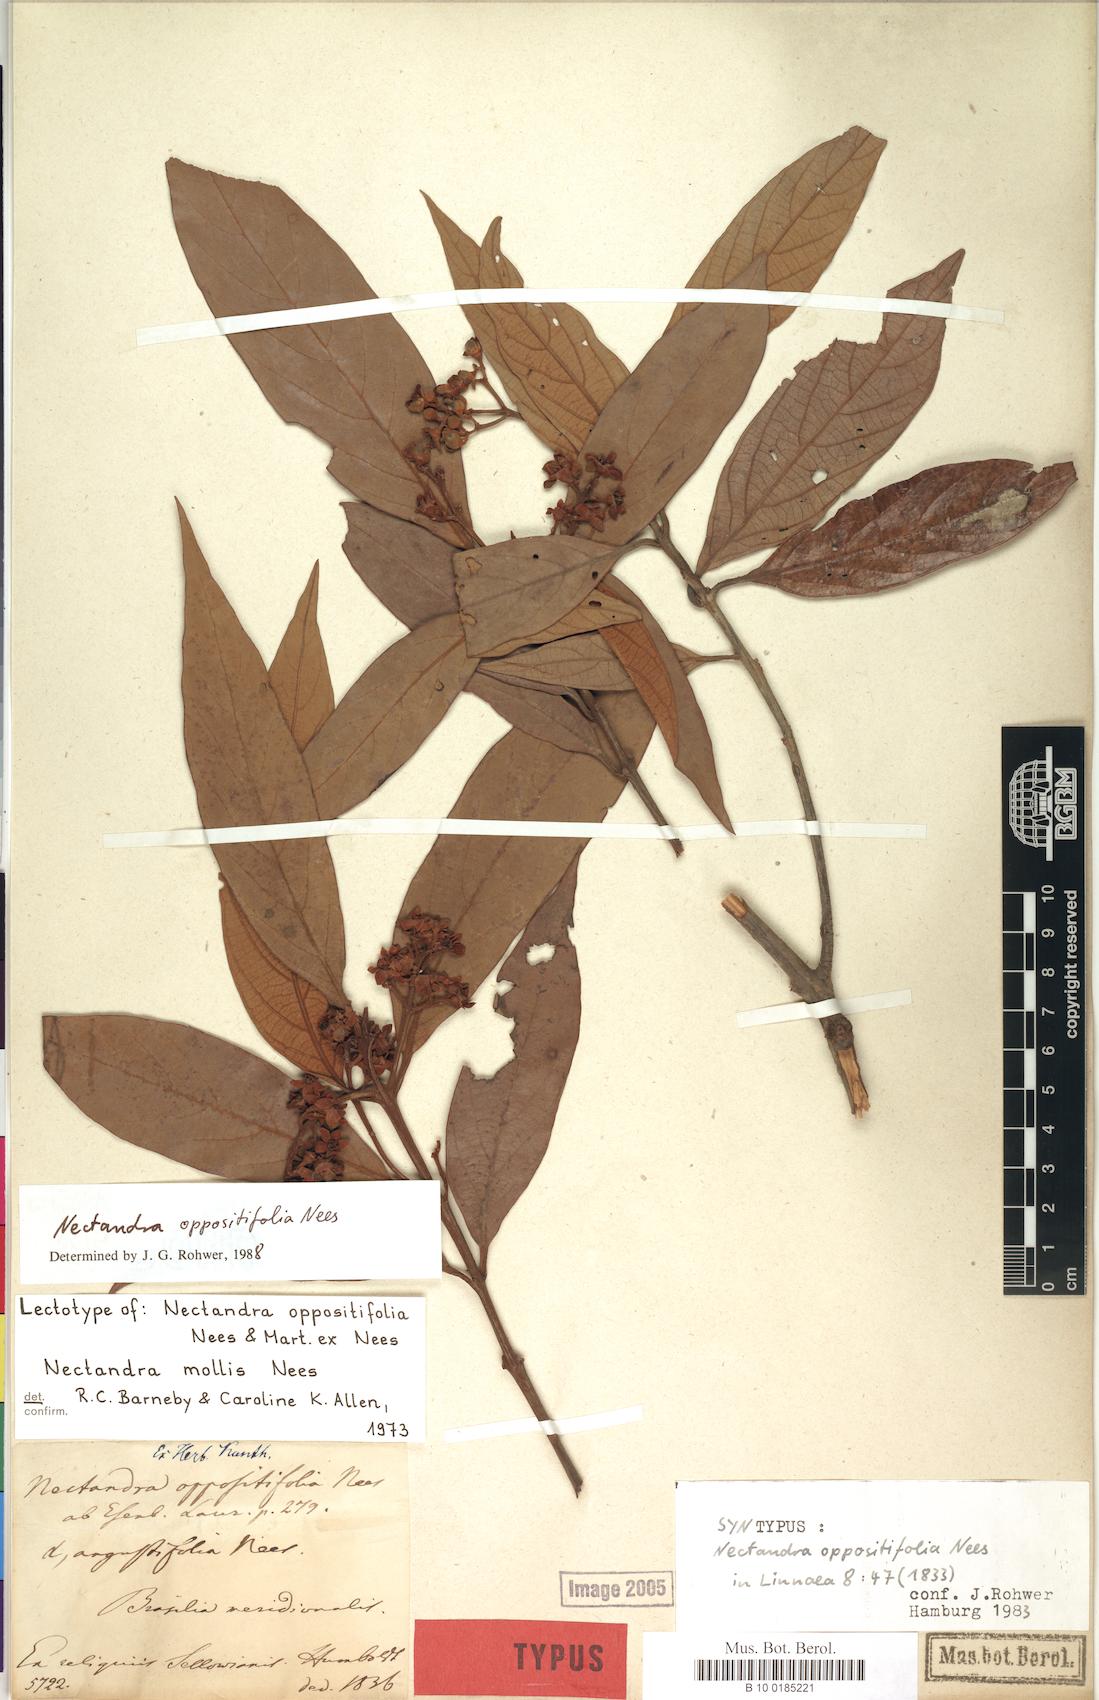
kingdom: Plantae
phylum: Tracheophyta
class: Magnoliopsida
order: Laurales
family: Lauraceae
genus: Nectandra
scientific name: Nectandra oppositifolia
